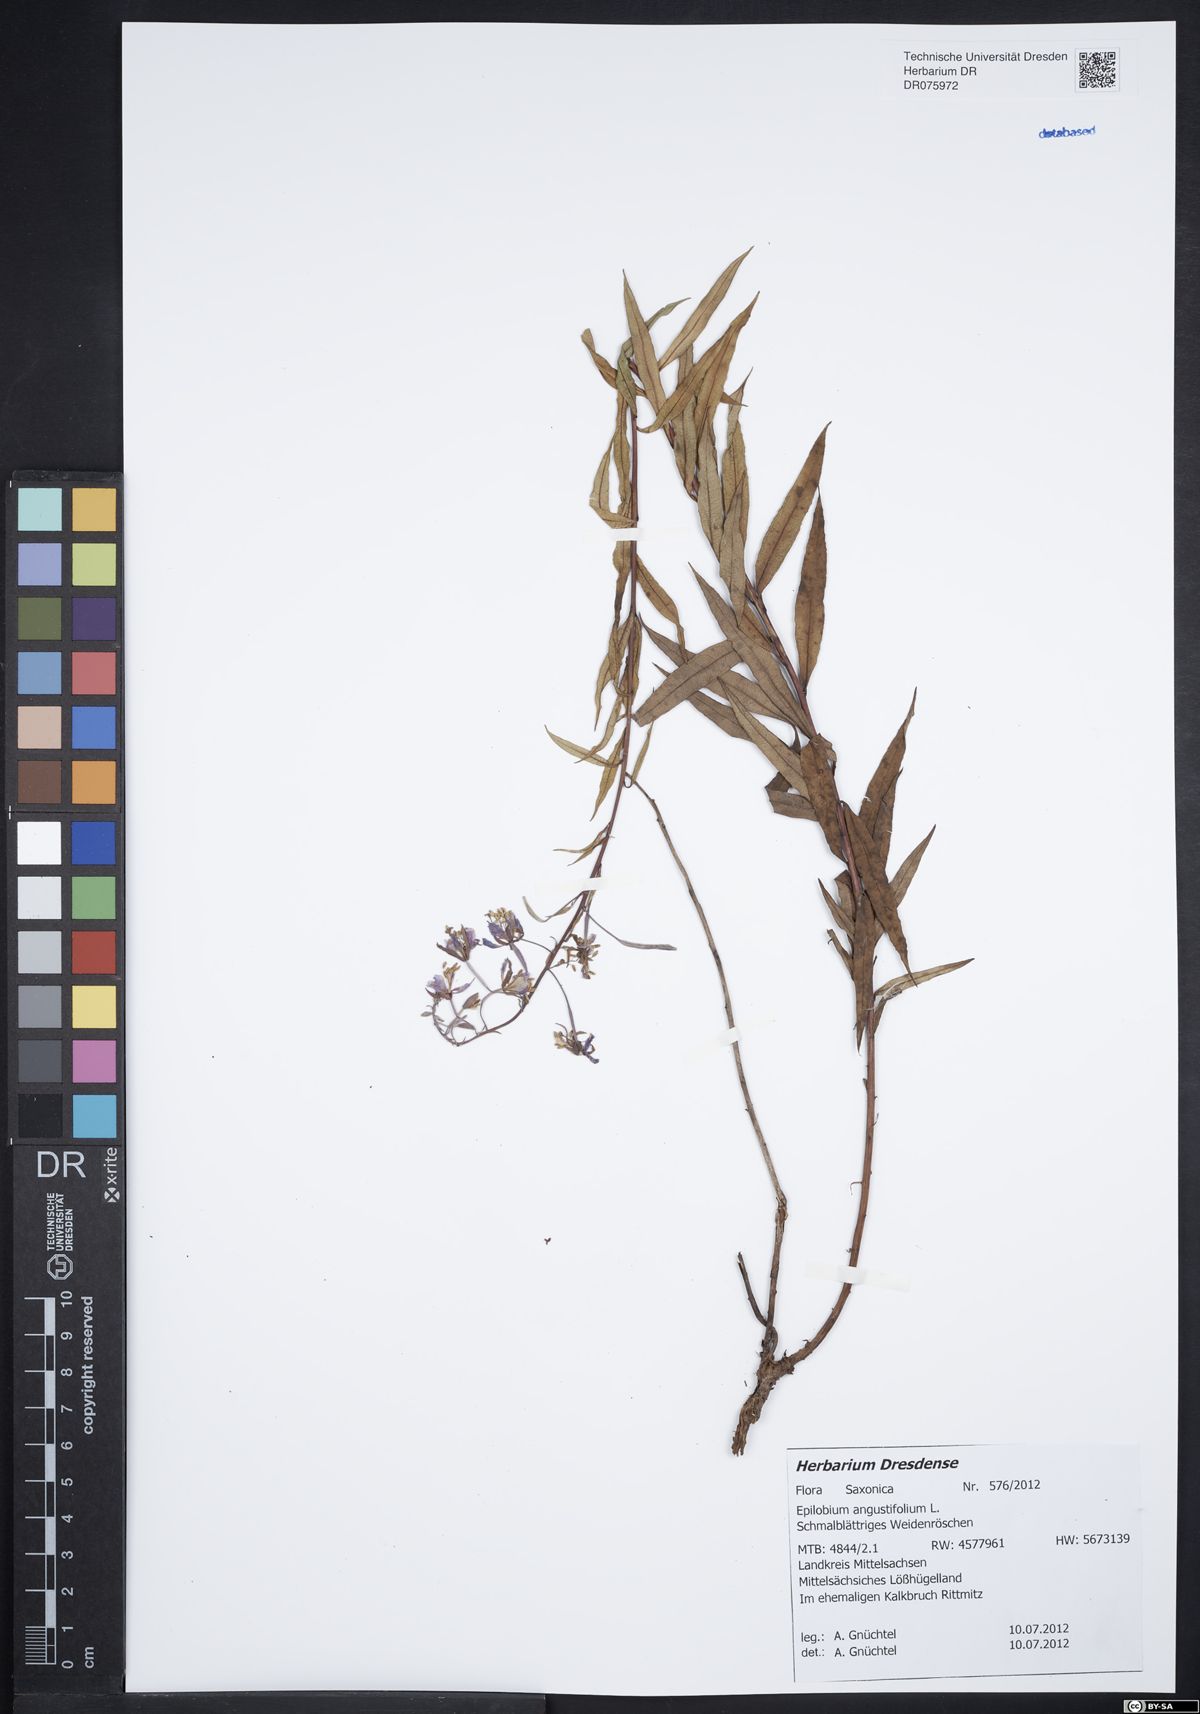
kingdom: Plantae
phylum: Tracheophyta
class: Magnoliopsida
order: Myrtales
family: Onagraceae
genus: Chamaenerion
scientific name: Chamaenerion angustifolium
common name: Fireweed
